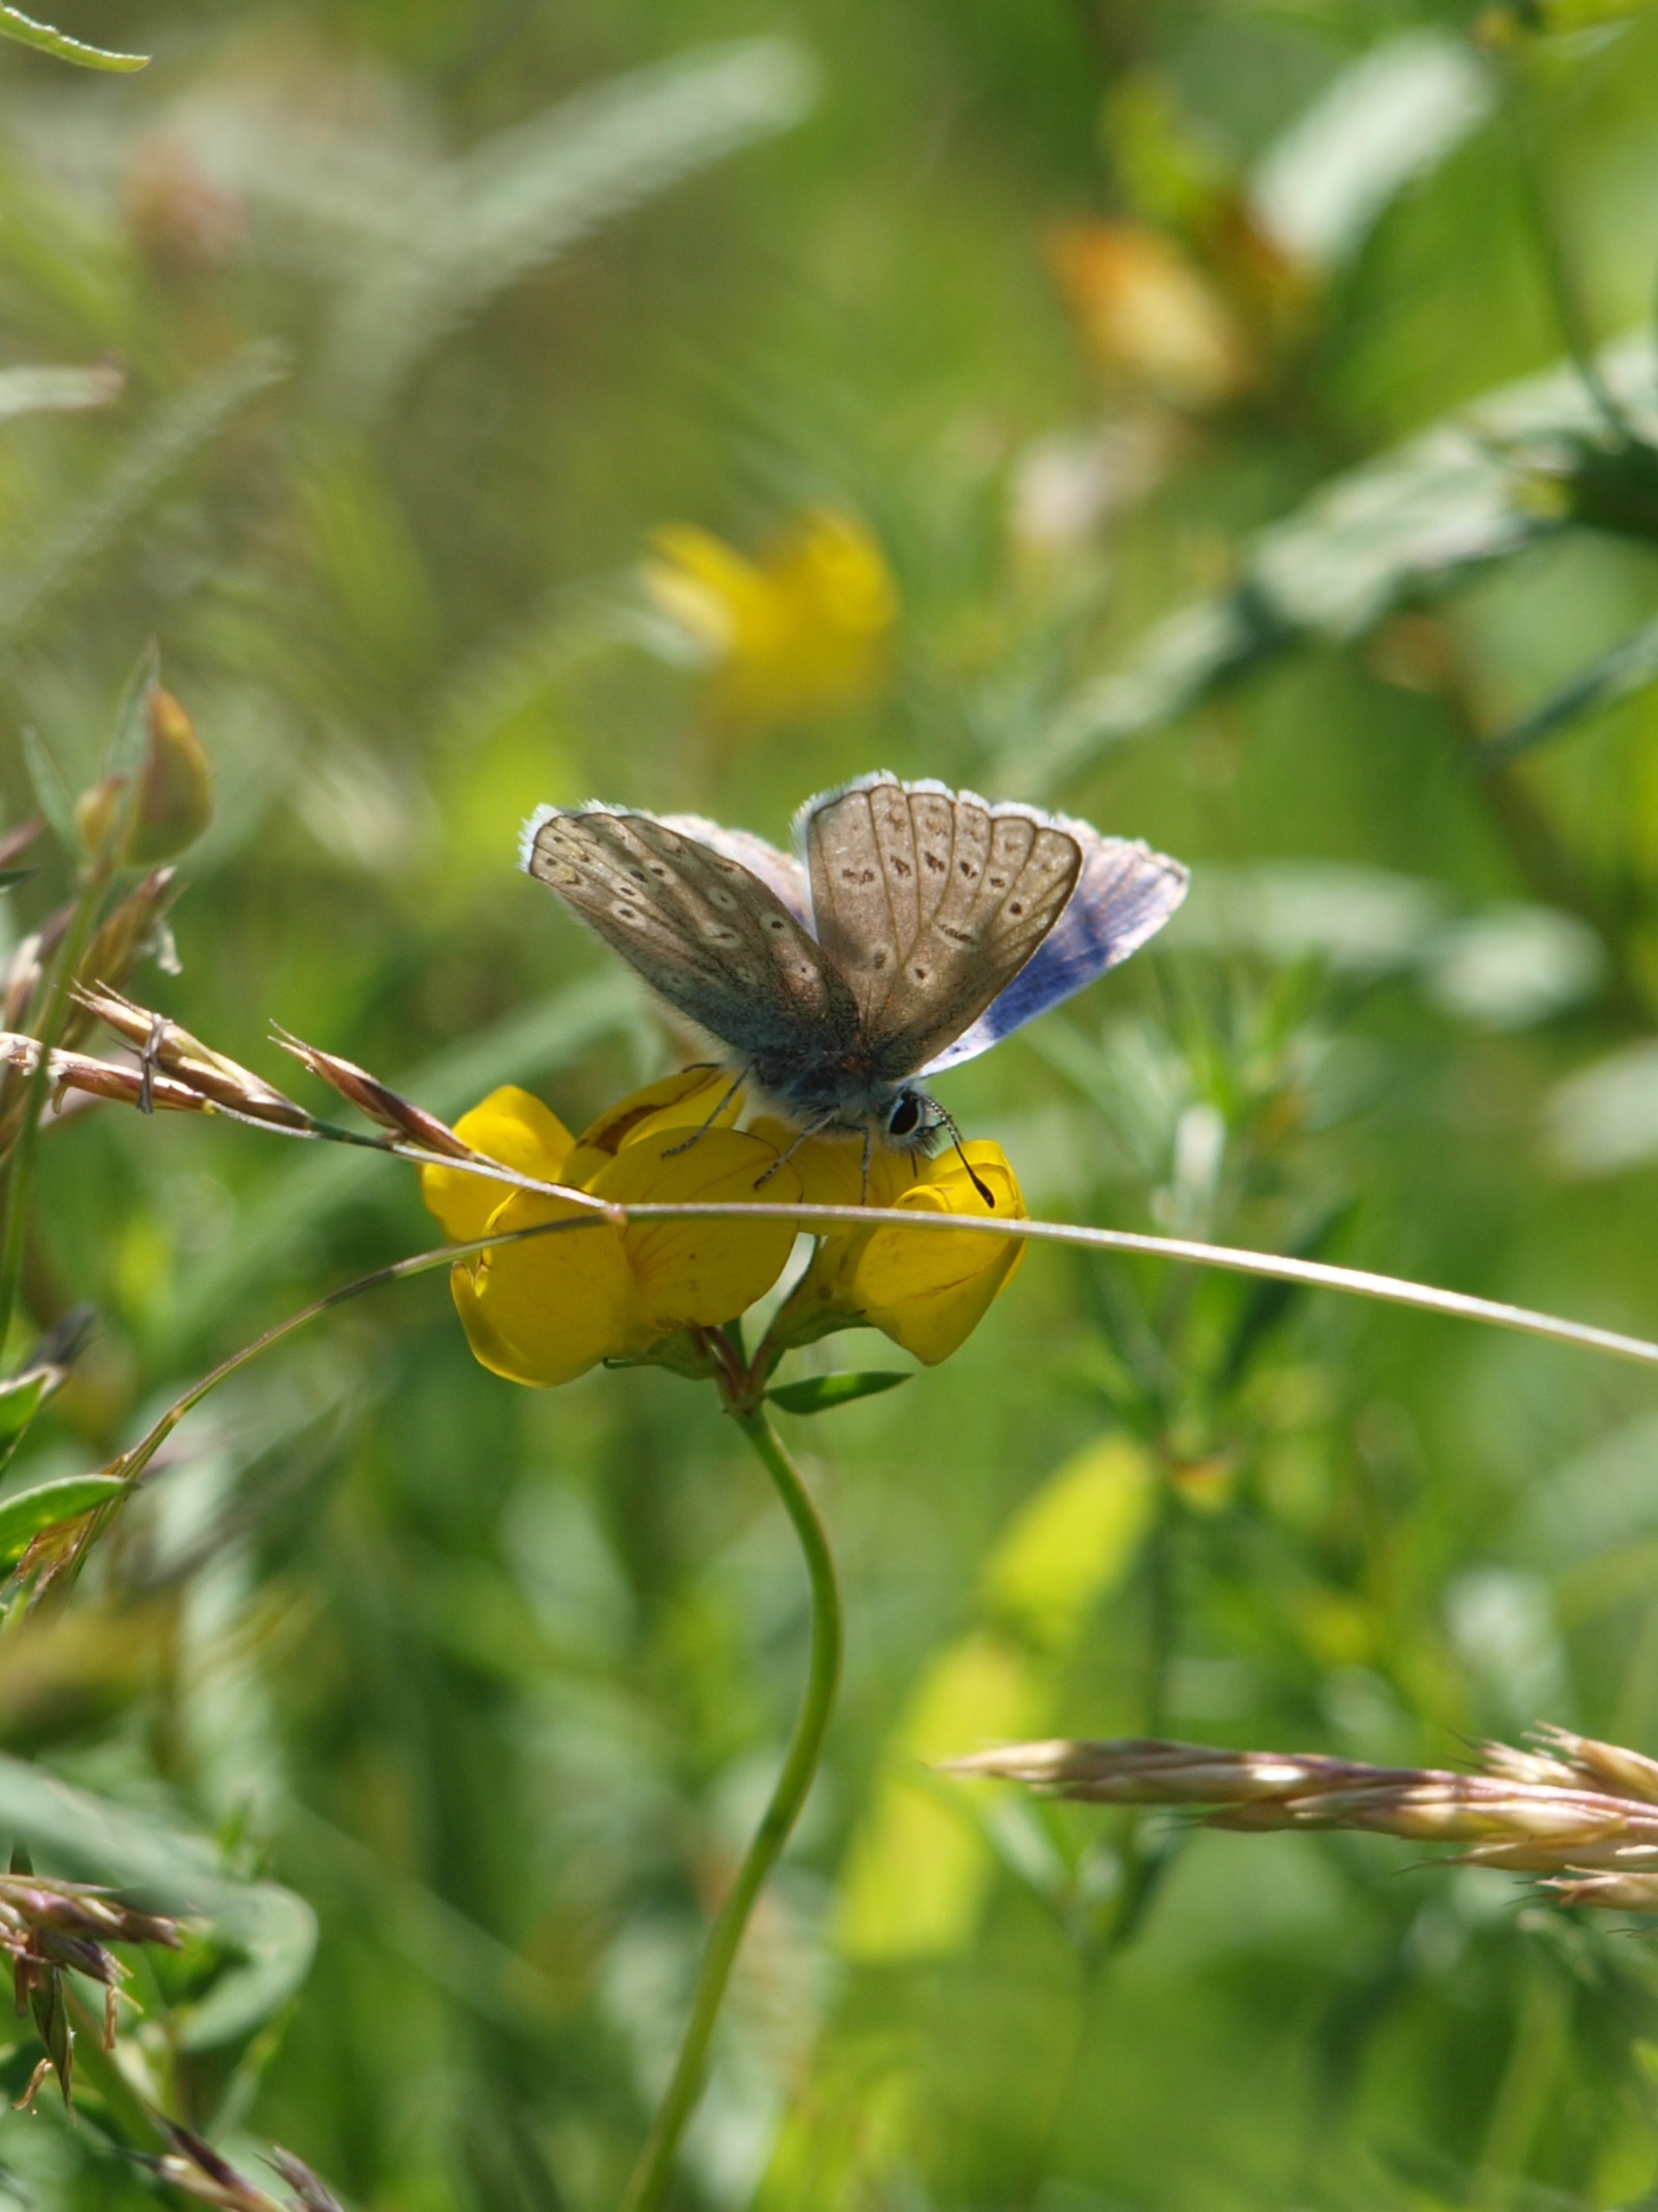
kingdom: Animalia
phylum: Arthropoda
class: Insecta
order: Lepidoptera
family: Lycaenidae
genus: Polyommatus
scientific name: Polyommatus icarus
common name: Almindelig blåfugl
